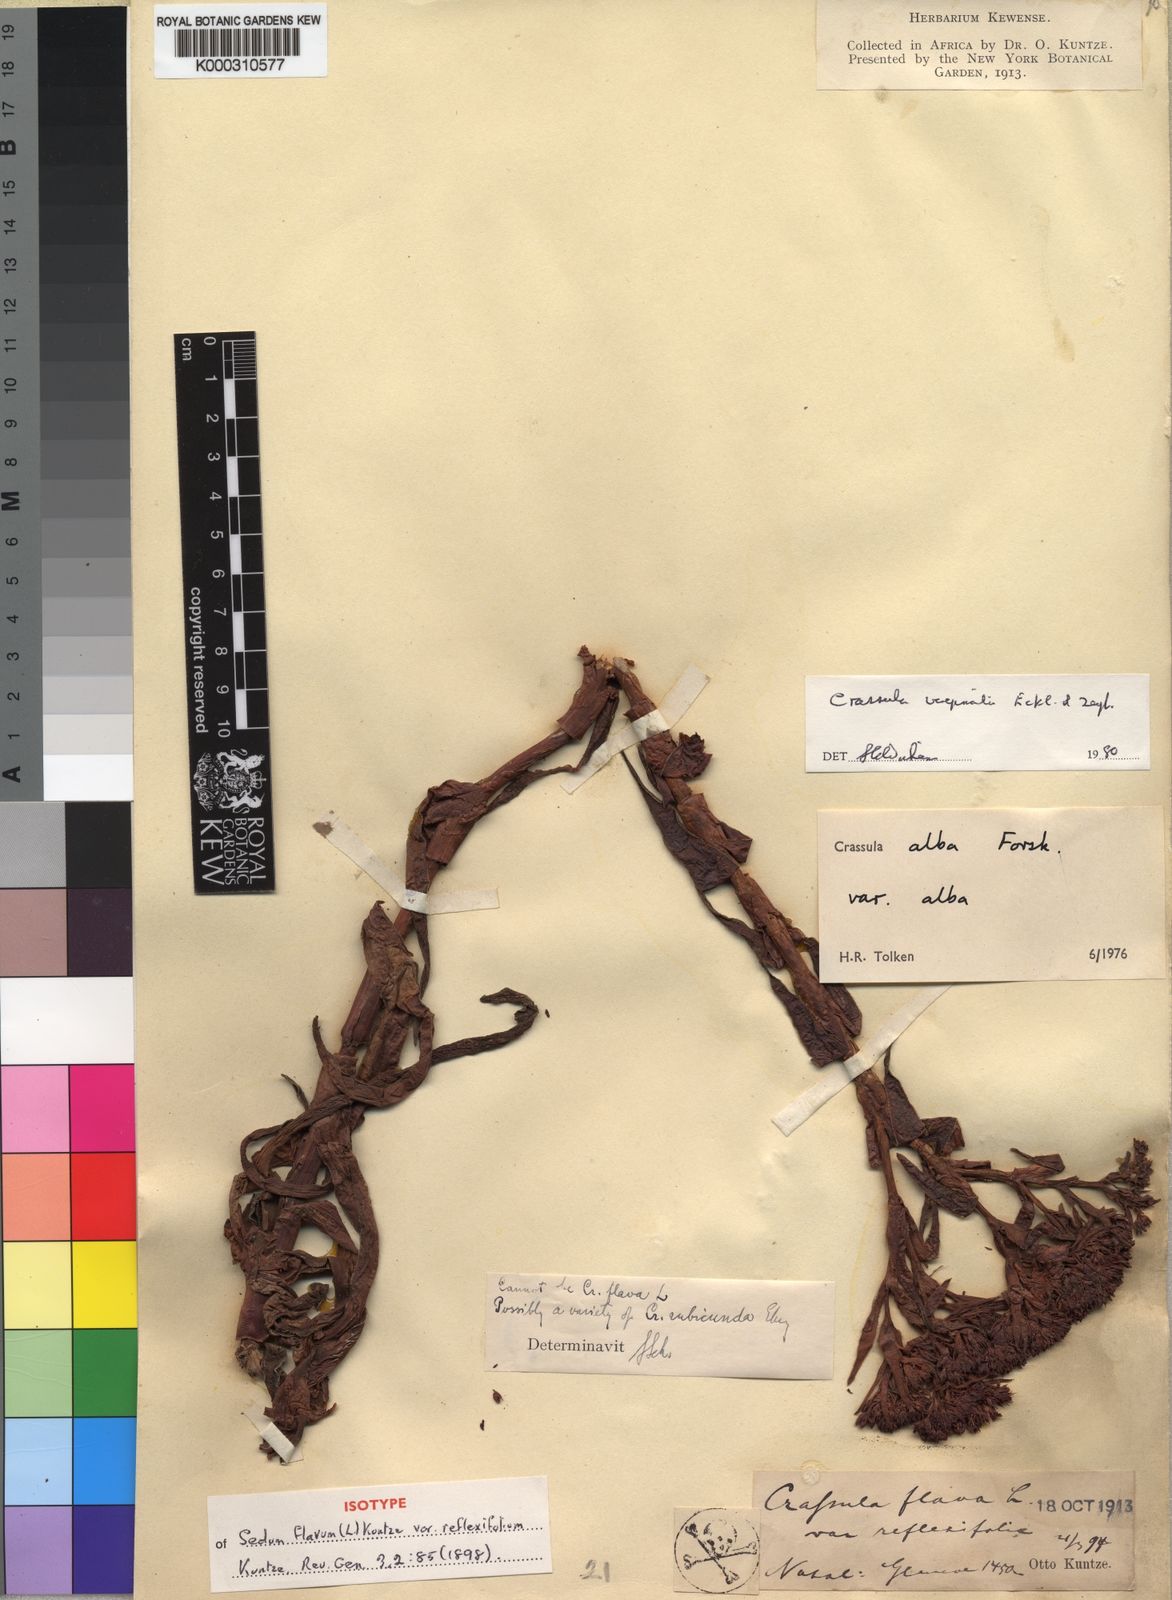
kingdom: Plantae
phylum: Tracheophyta
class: Magnoliopsida
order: Saxifragales
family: Crassulaceae
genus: Crassula
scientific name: Crassula vaginata
